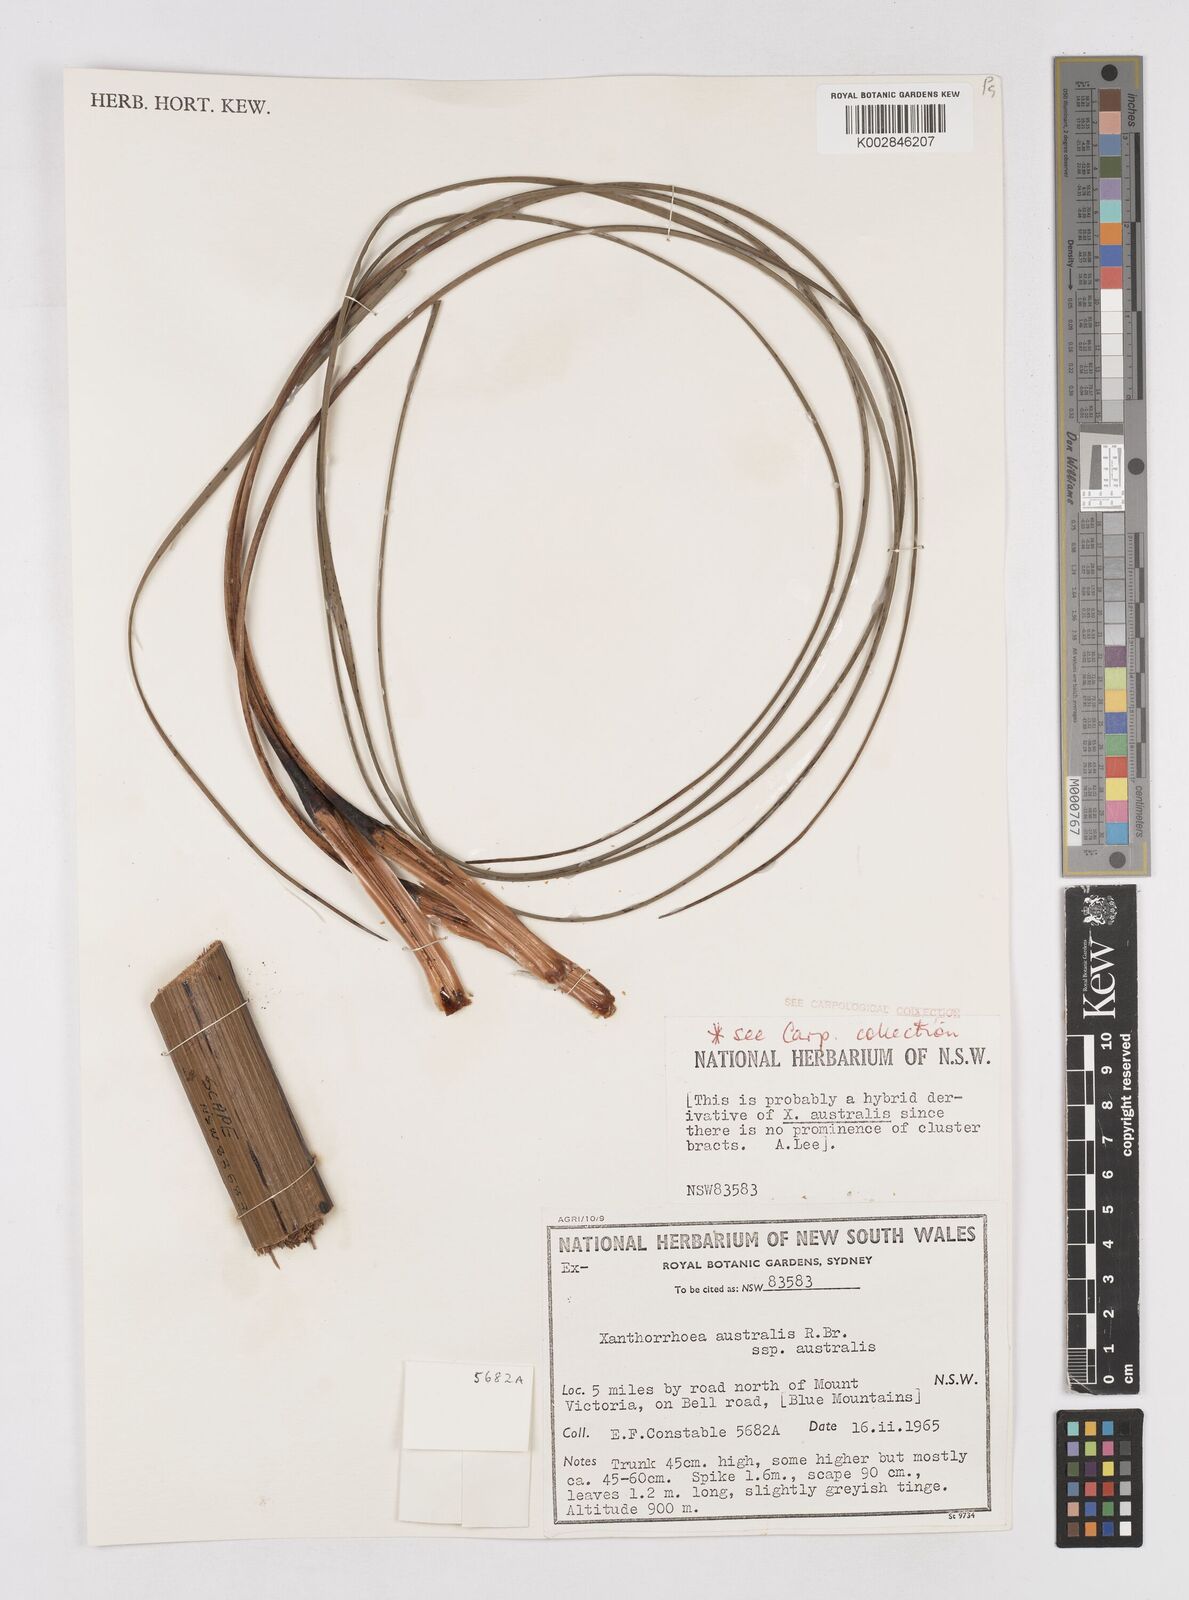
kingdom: Plantae
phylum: Tracheophyta
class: Liliopsida
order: Asparagales
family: Asphodelaceae
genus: Xanthorrhoea
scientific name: Xanthorrhoea australis
